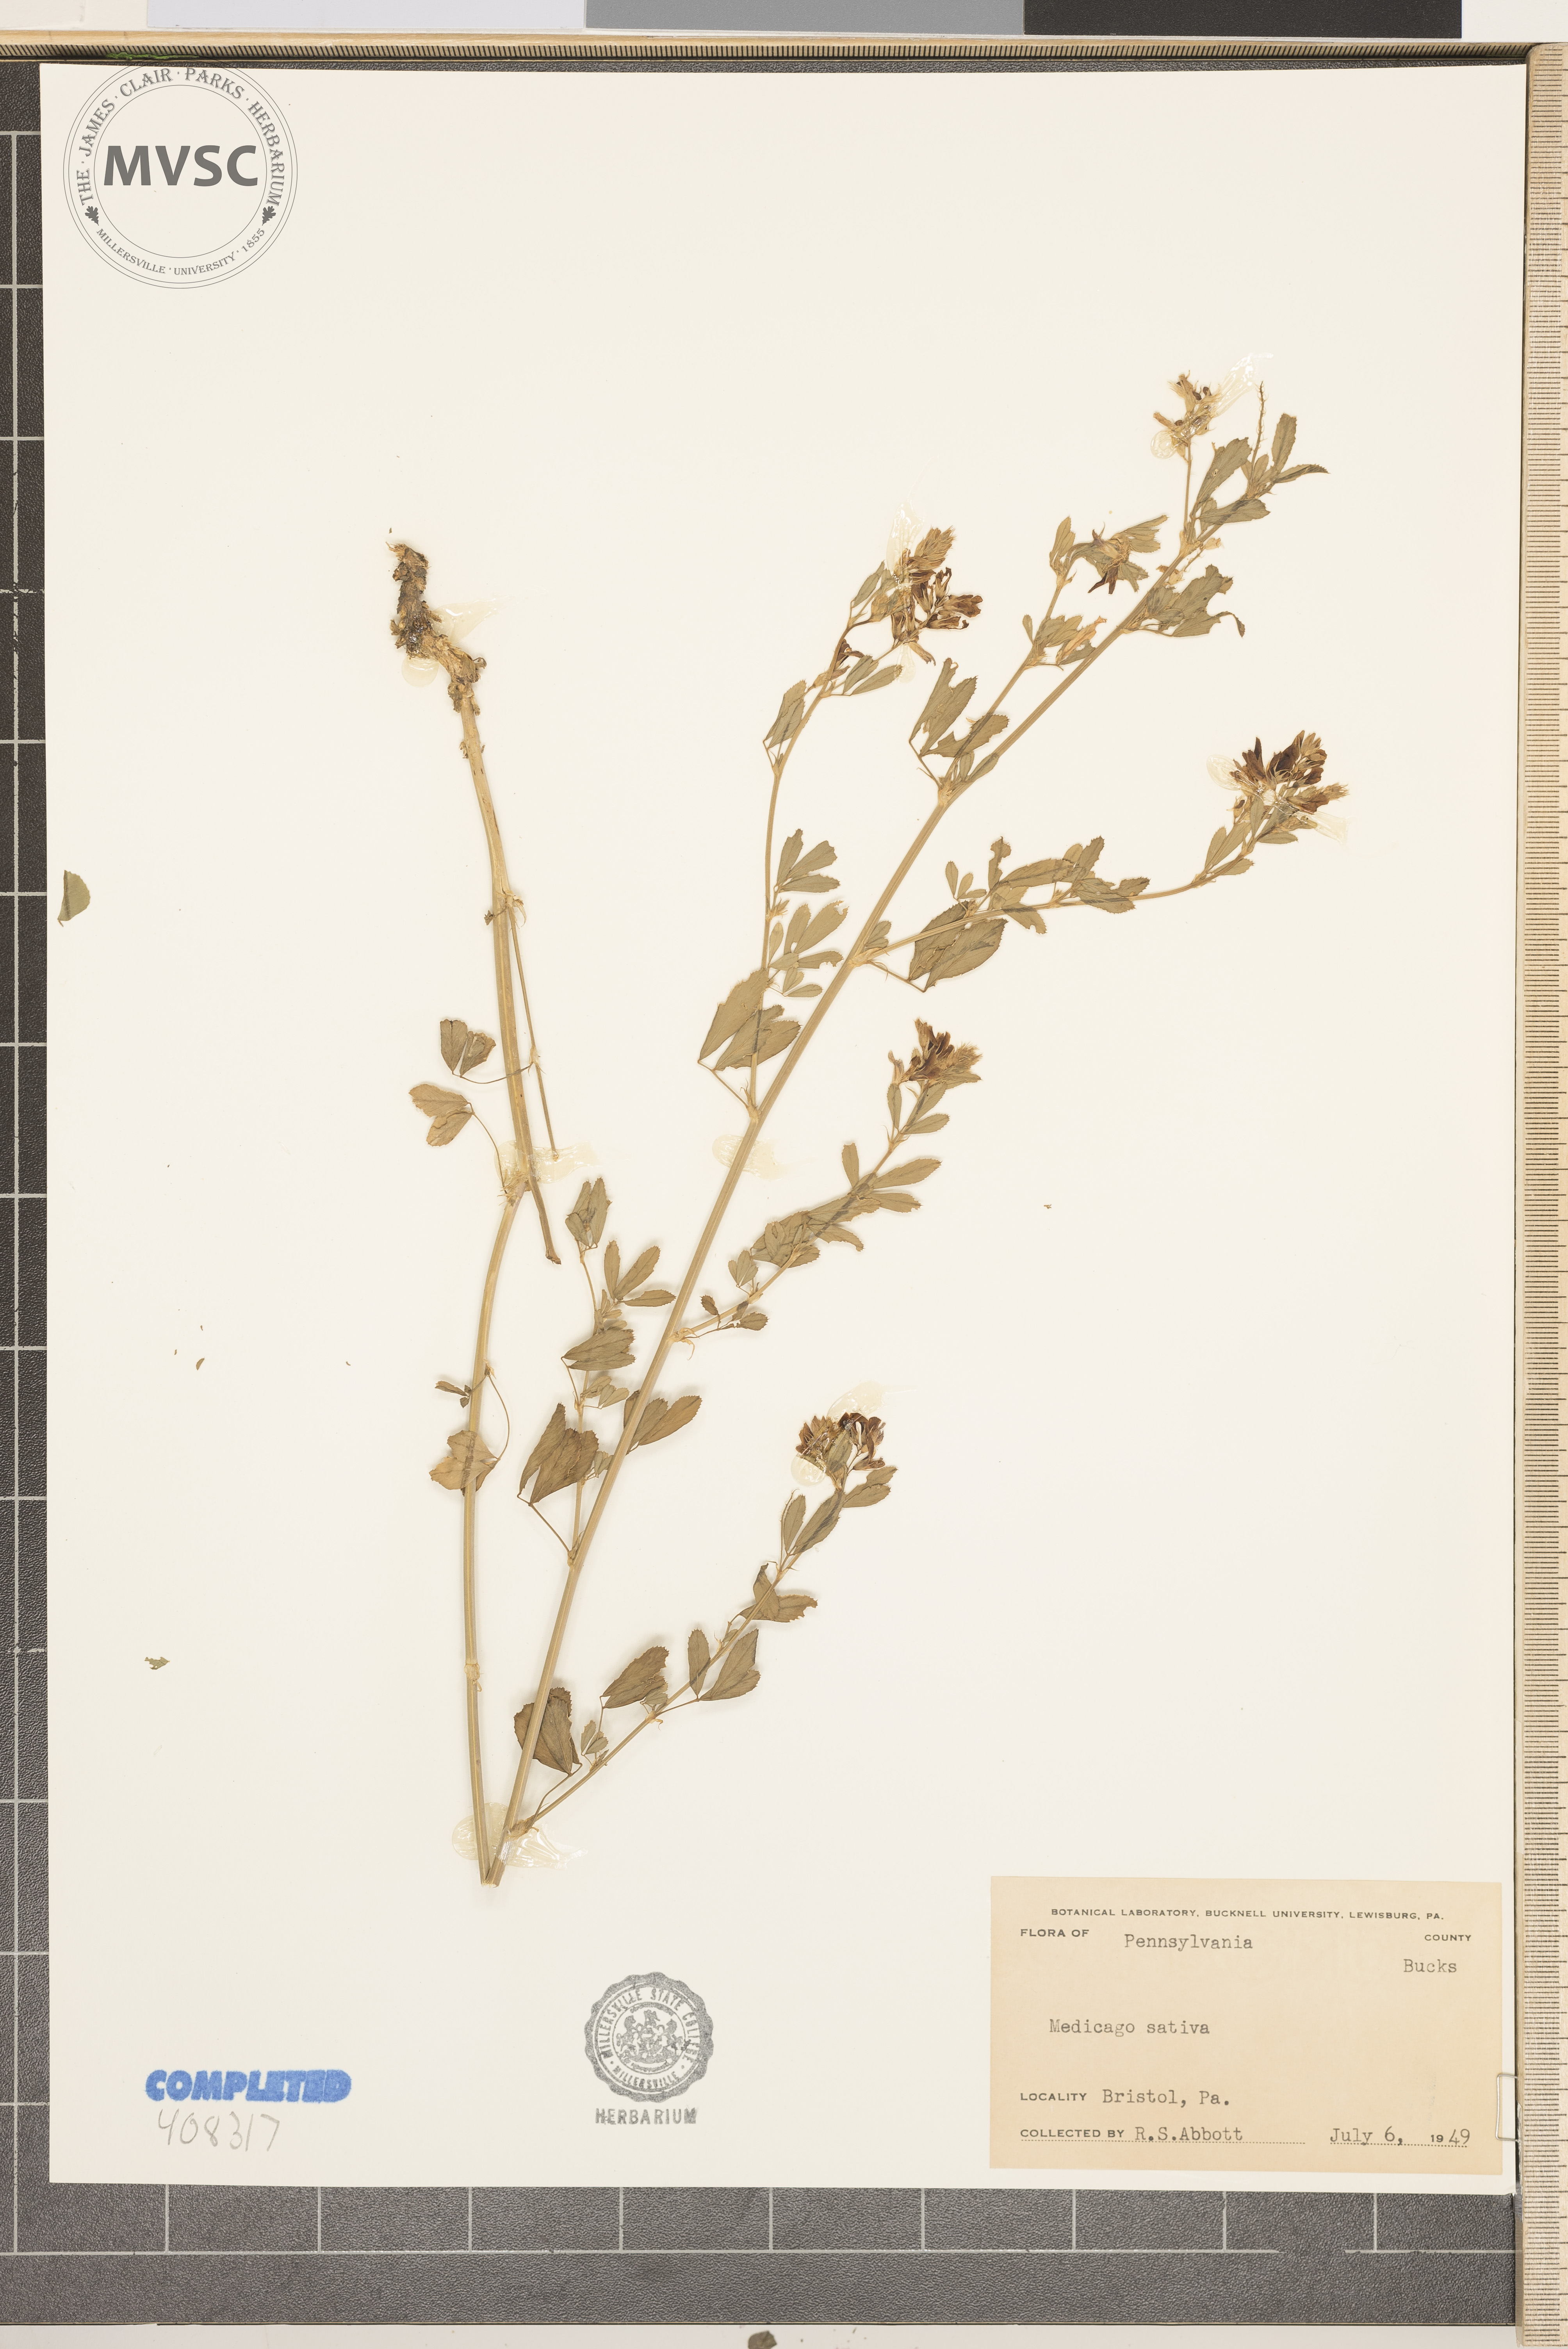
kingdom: Plantae
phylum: Tracheophyta
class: Magnoliopsida
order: Fabales
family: Fabaceae
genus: Medicago
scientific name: Medicago sativa
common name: alfalfa
